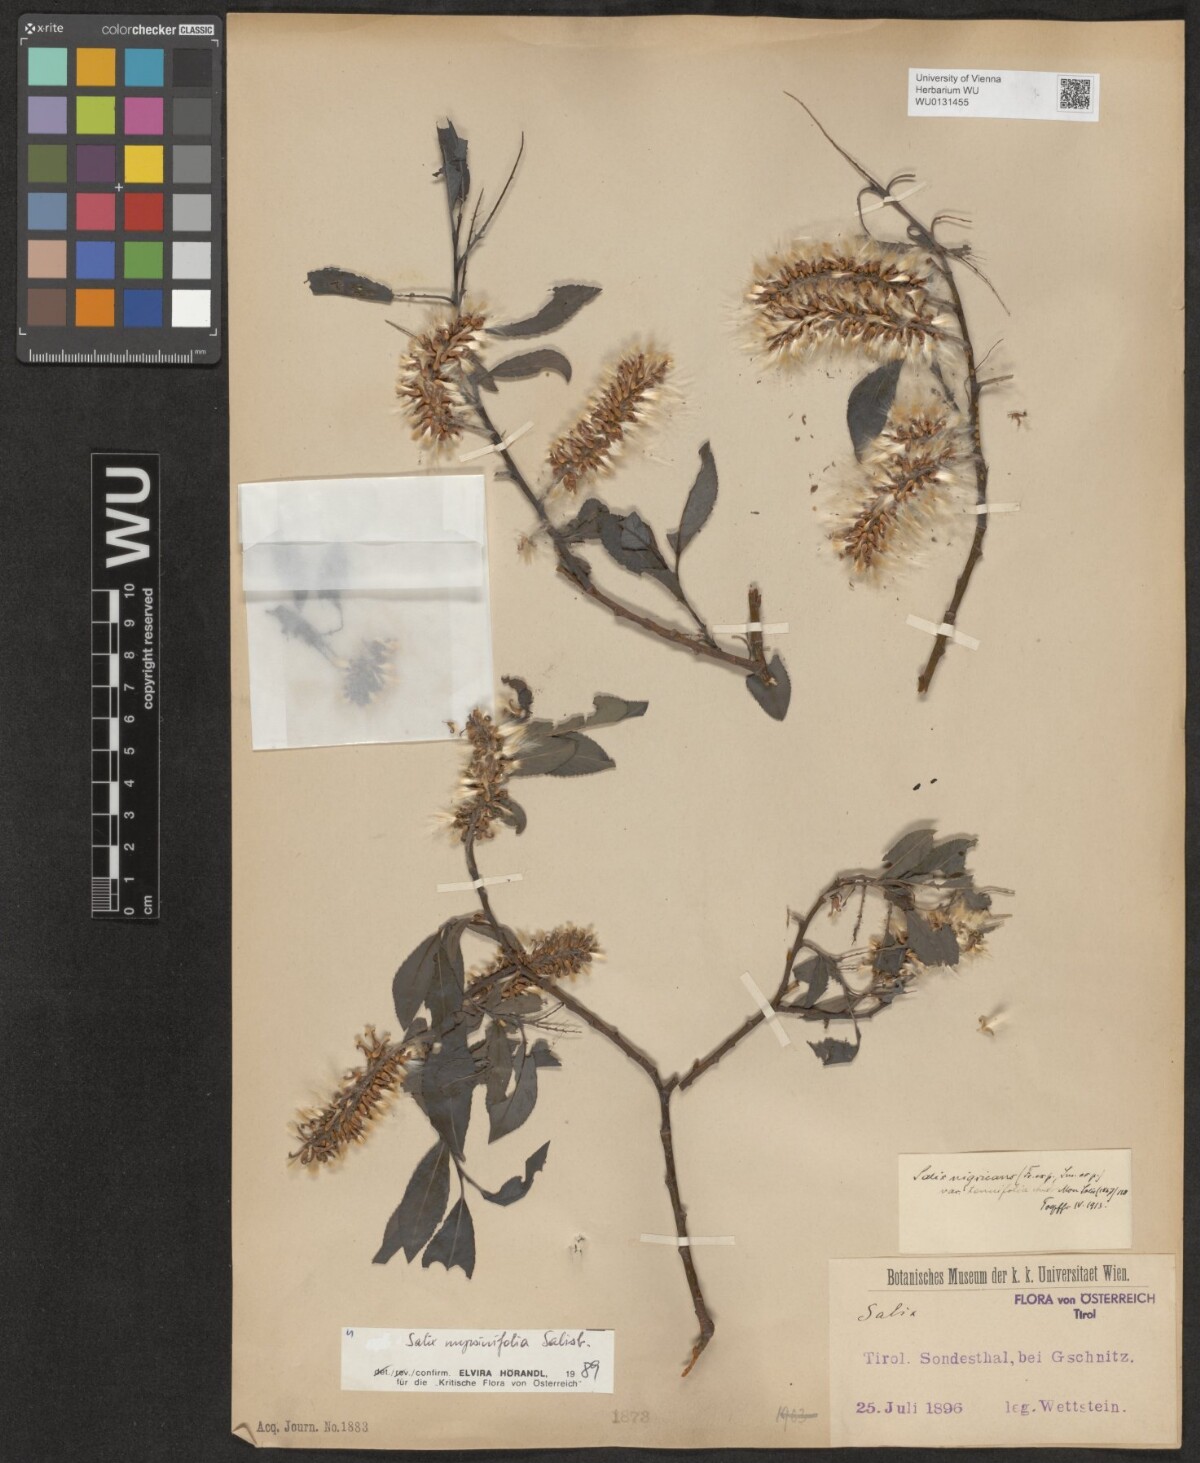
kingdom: Plantae
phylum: Tracheophyta
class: Magnoliopsida
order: Malpighiales
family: Salicaceae
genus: Salix
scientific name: Salix myrsinifolia
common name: Dark-leaved willow
